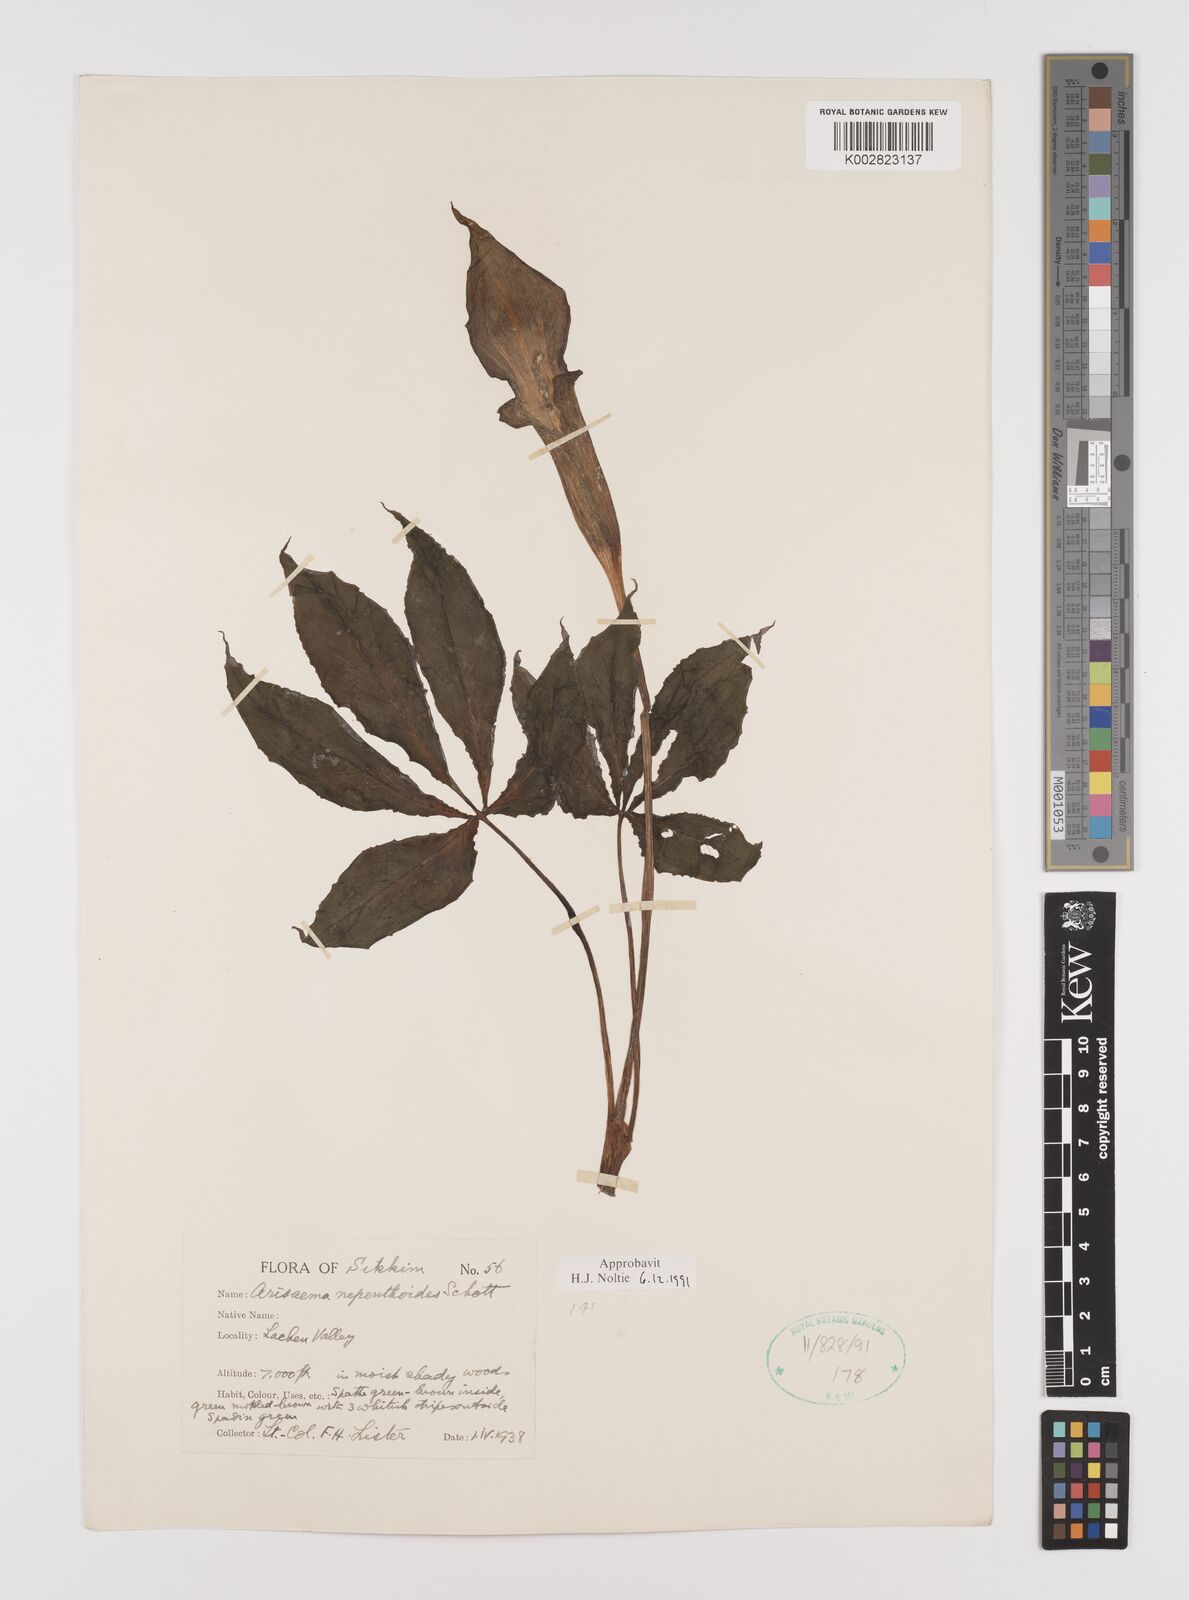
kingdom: Plantae
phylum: Tracheophyta
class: Liliopsida
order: Alismatales
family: Araceae
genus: Arisaema
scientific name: Arisaema nepenthoides
